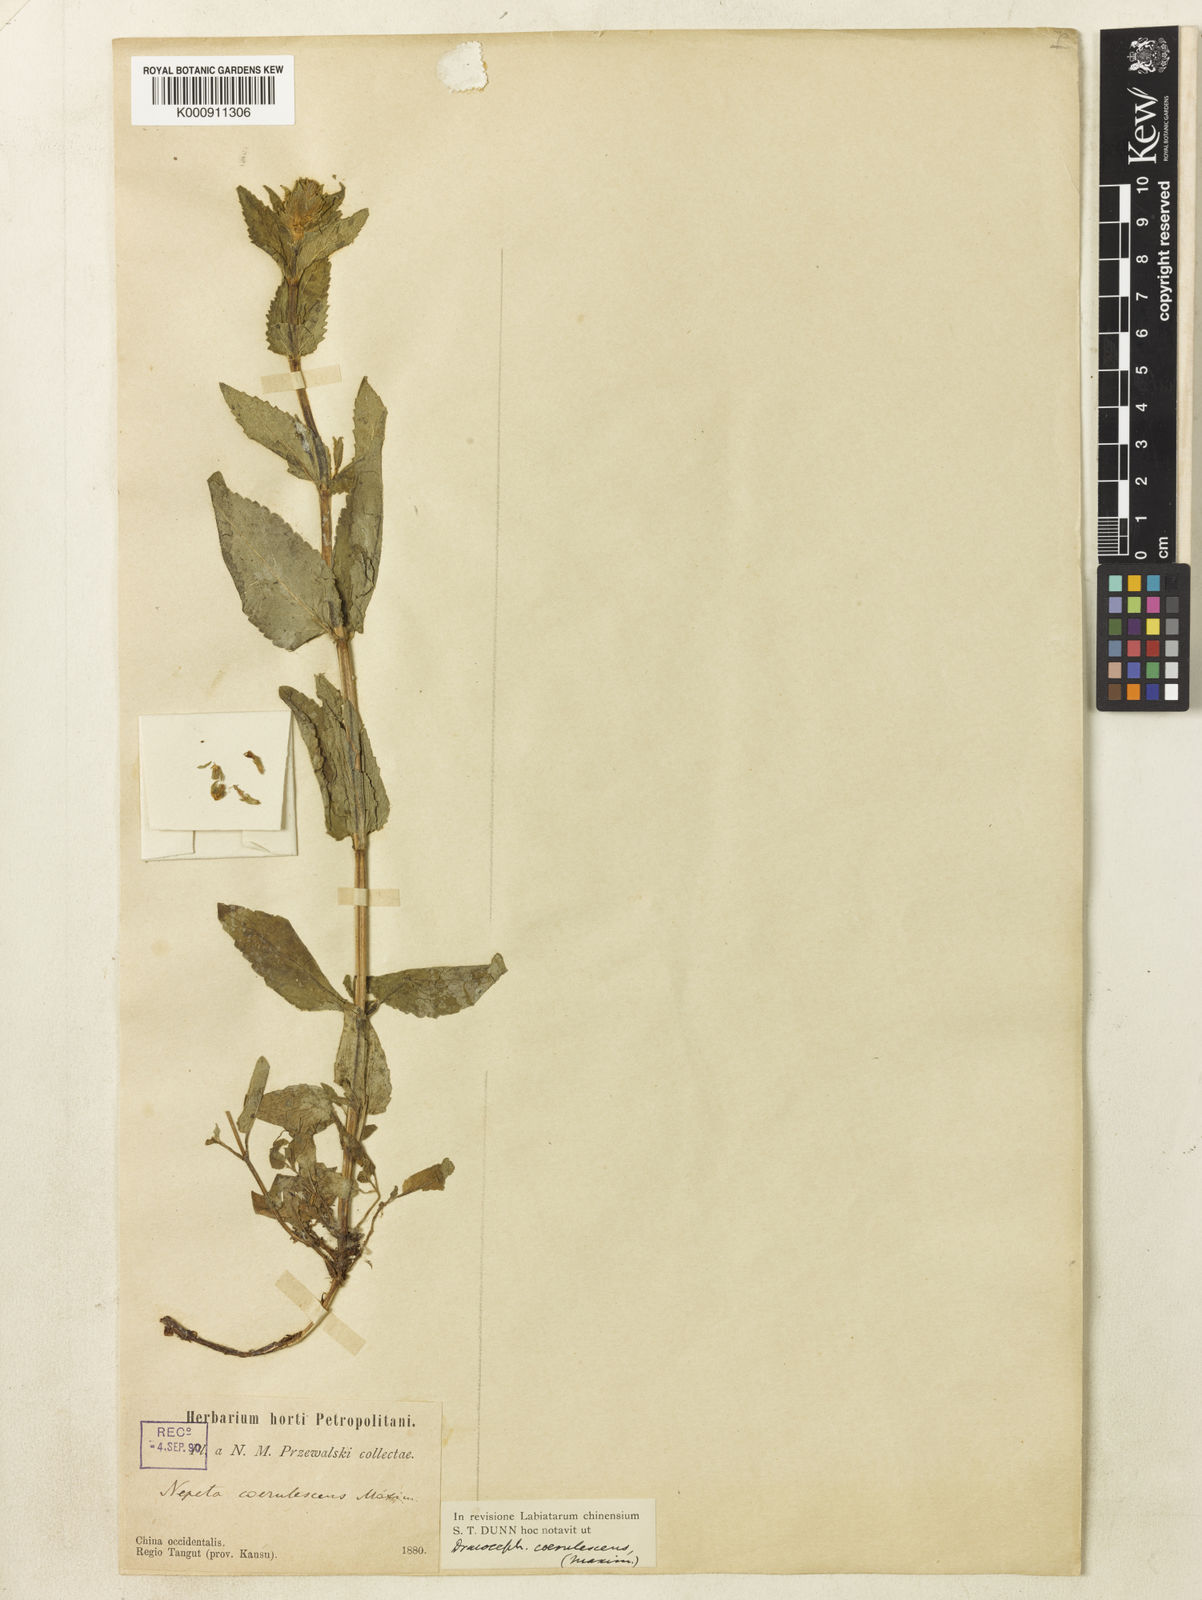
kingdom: Plantae
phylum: Tracheophyta
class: Magnoliopsida
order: Lamiales
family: Lamiaceae
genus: Nepeta
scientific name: Nepeta coerulescens
